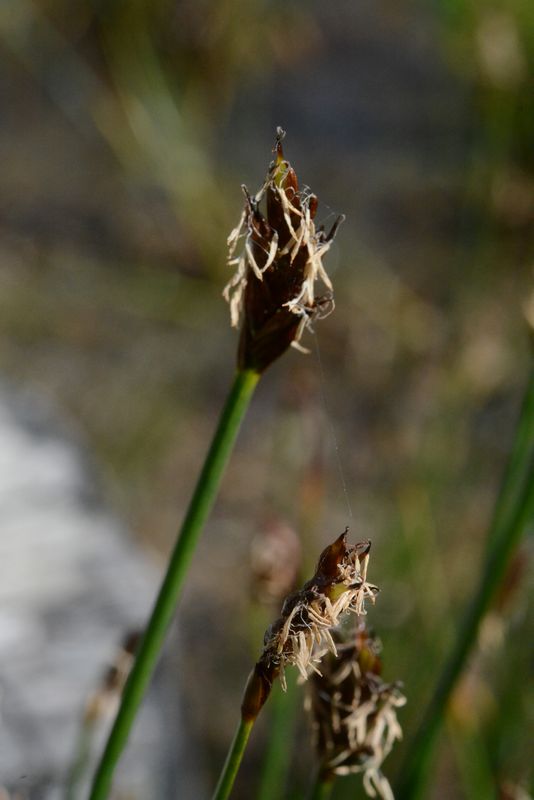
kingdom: Plantae
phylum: Tracheophyta
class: Liliopsida
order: Poales
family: Cyperaceae
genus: Eleocharis
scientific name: Eleocharis uniglumis
